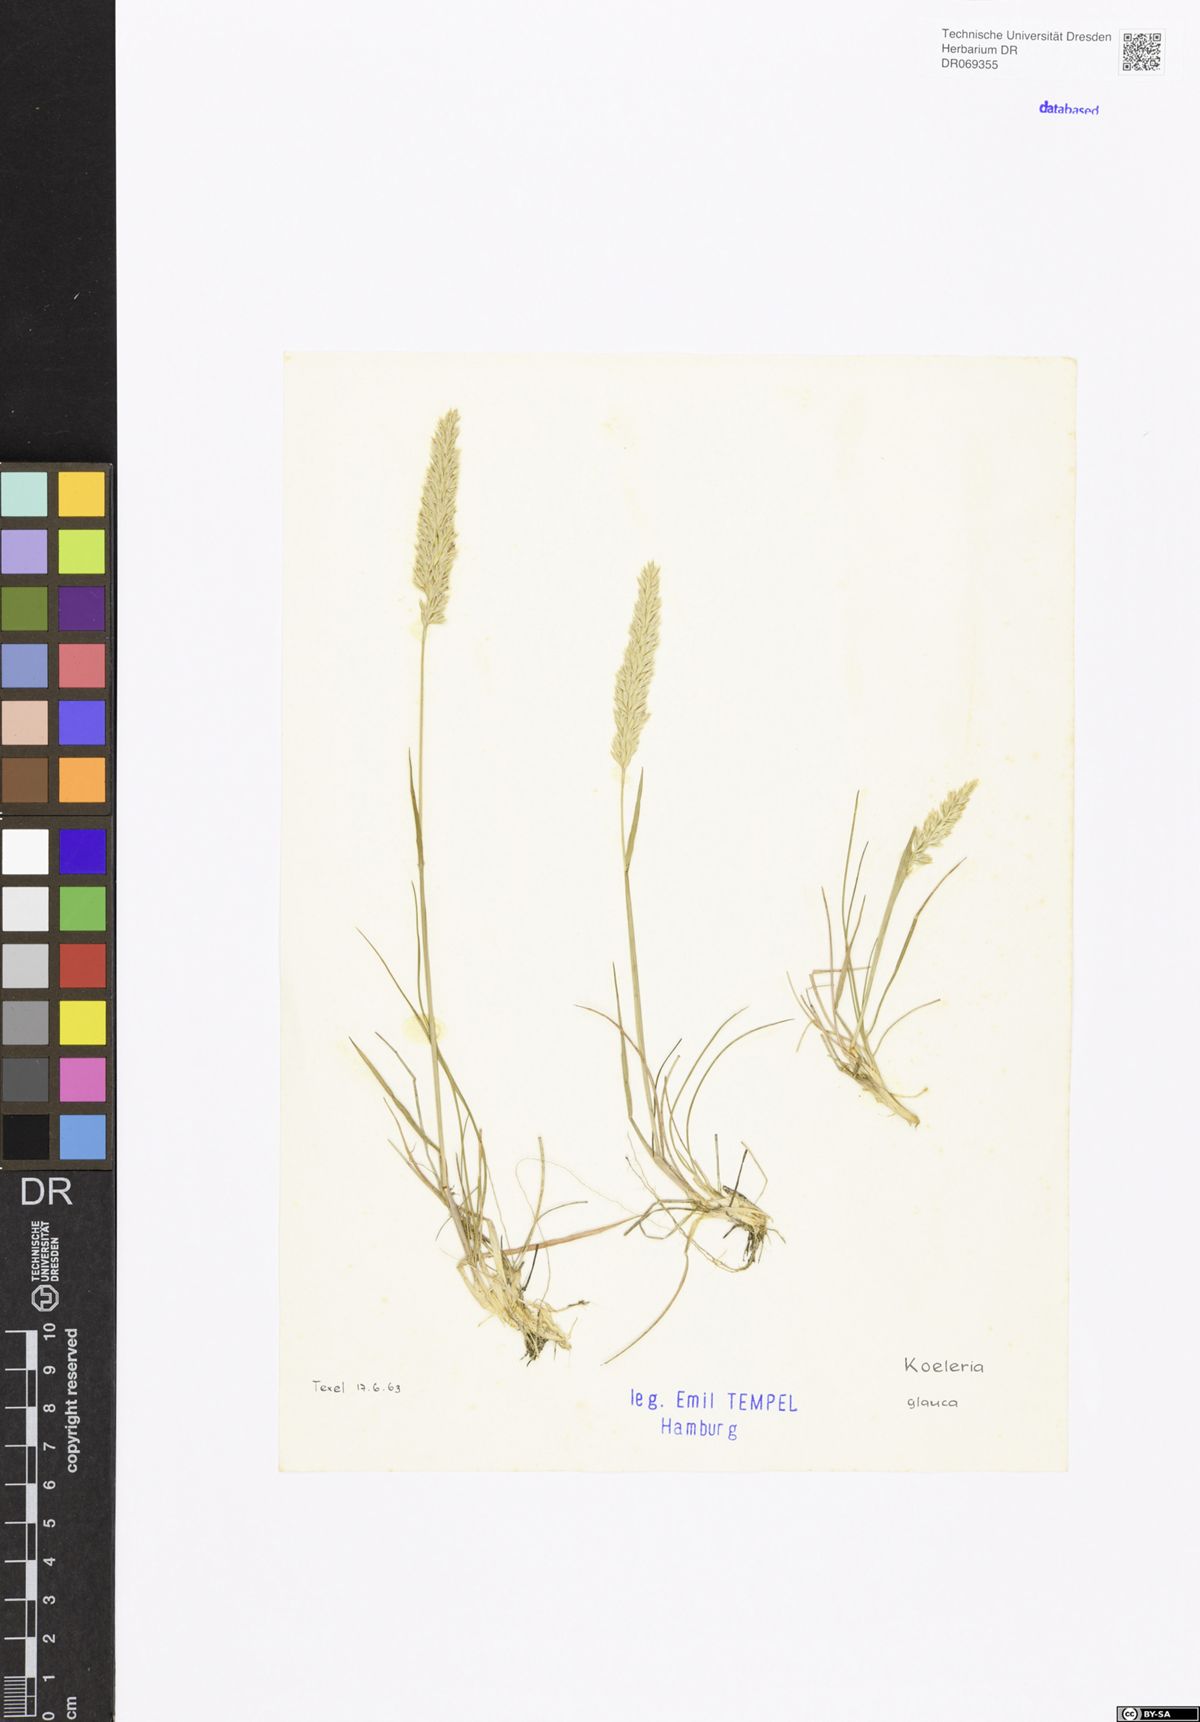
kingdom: Plantae
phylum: Tracheophyta
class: Liliopsida
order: Poales
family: Poaceae
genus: Koeleria
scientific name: Koeleria glauca
